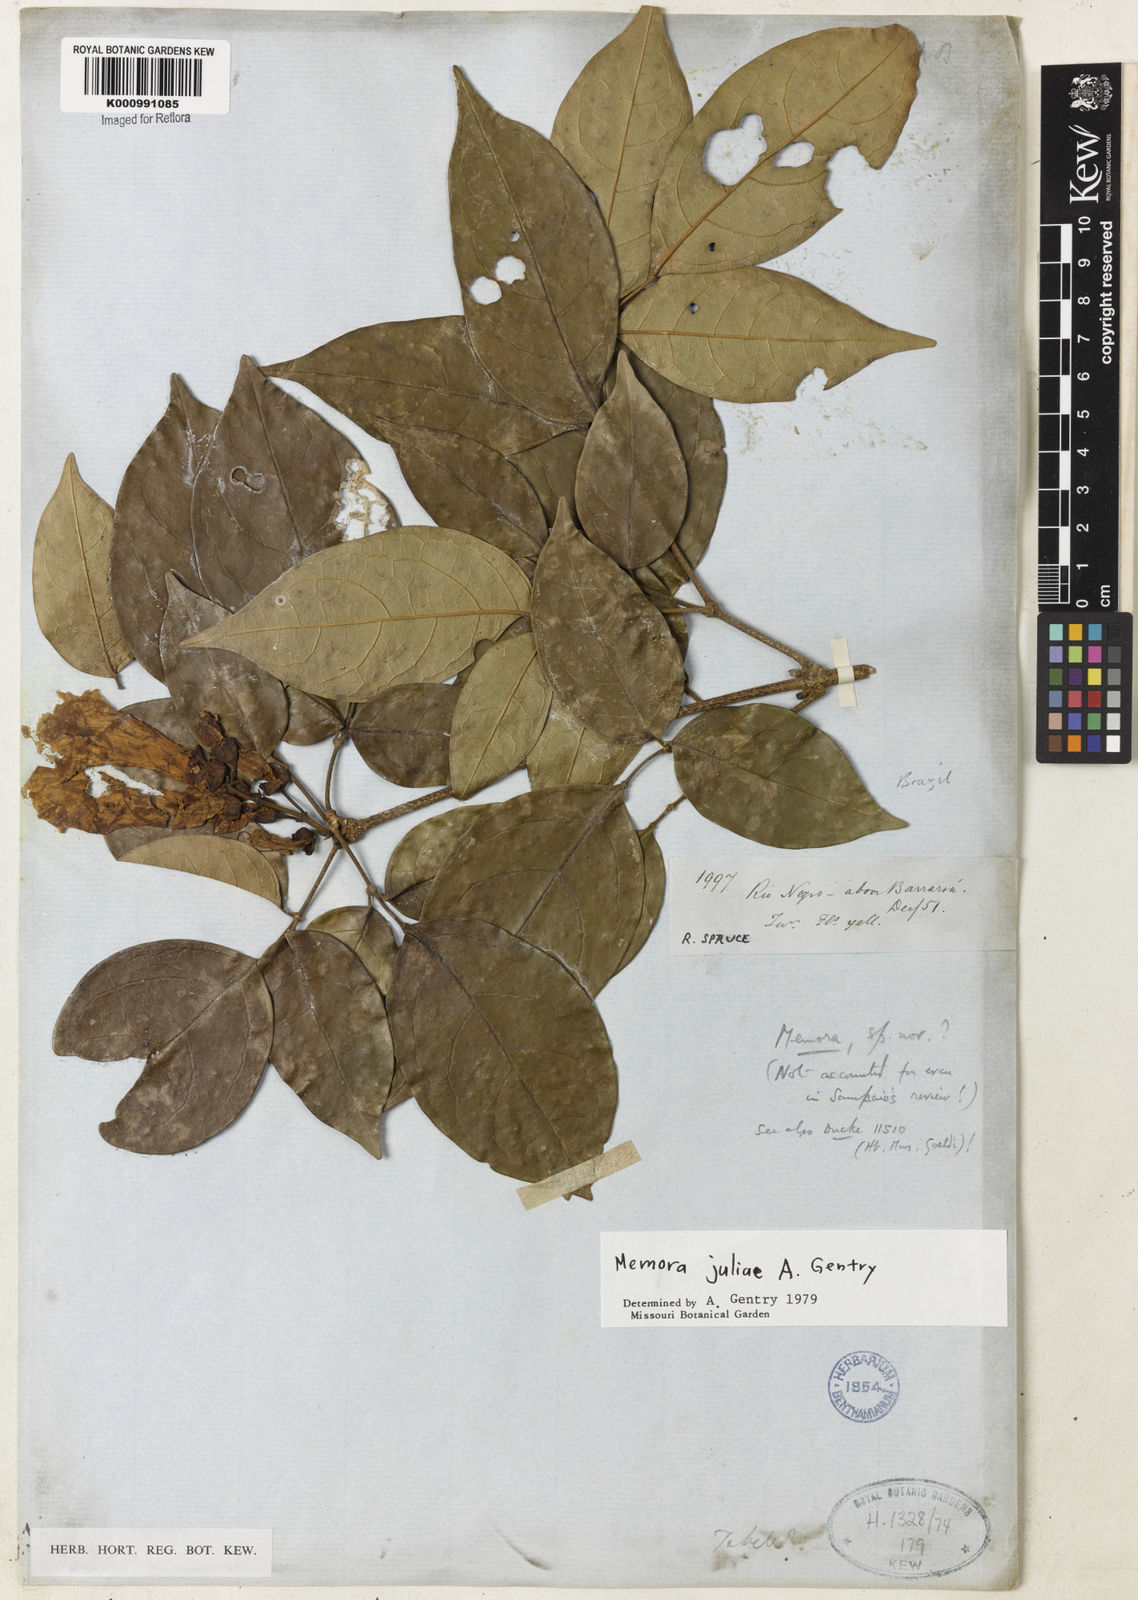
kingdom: Plantae
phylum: Tracheophyta
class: Magnoliopsida
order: Lamiales
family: Bignoniaceae
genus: Adenocalymma
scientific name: Adenocalymma juliae
